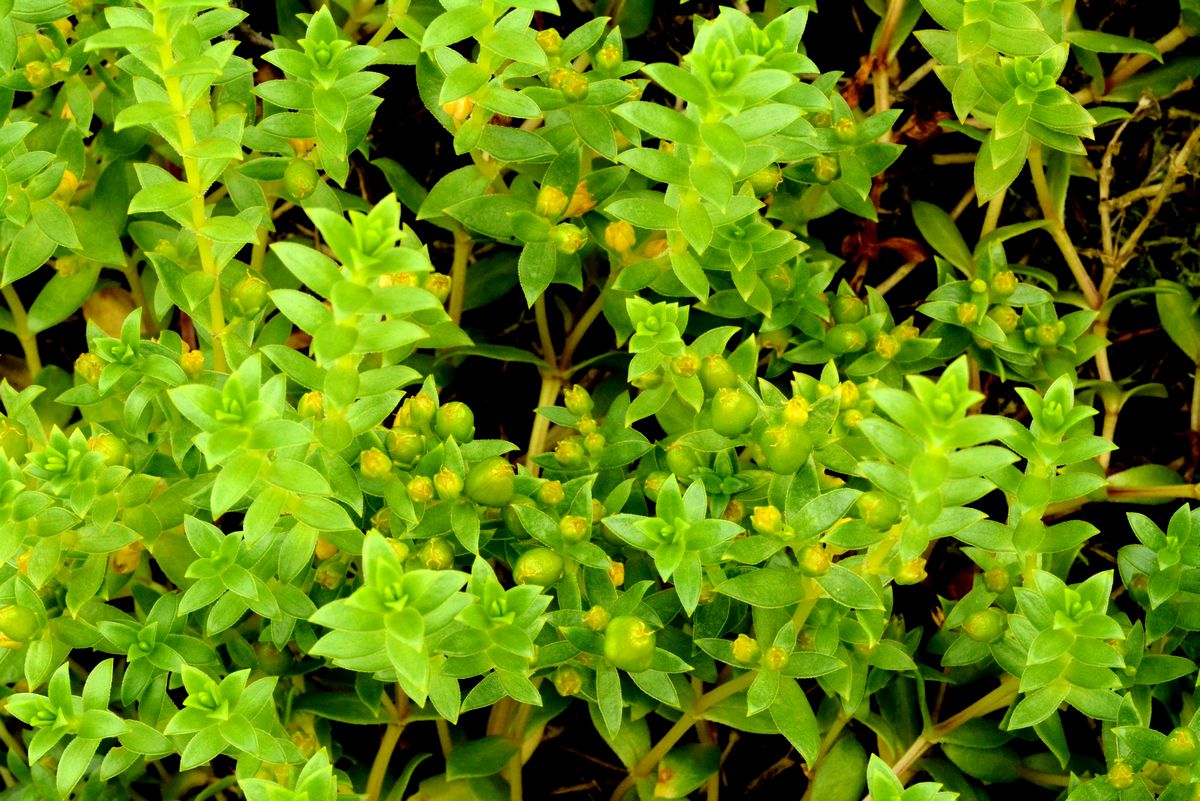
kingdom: Plantae
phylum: Tracheophyta
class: Magnoliopsida
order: Caryophyllales
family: Caryophyllaceae
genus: Honckenya
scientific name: Honckenya peploides
